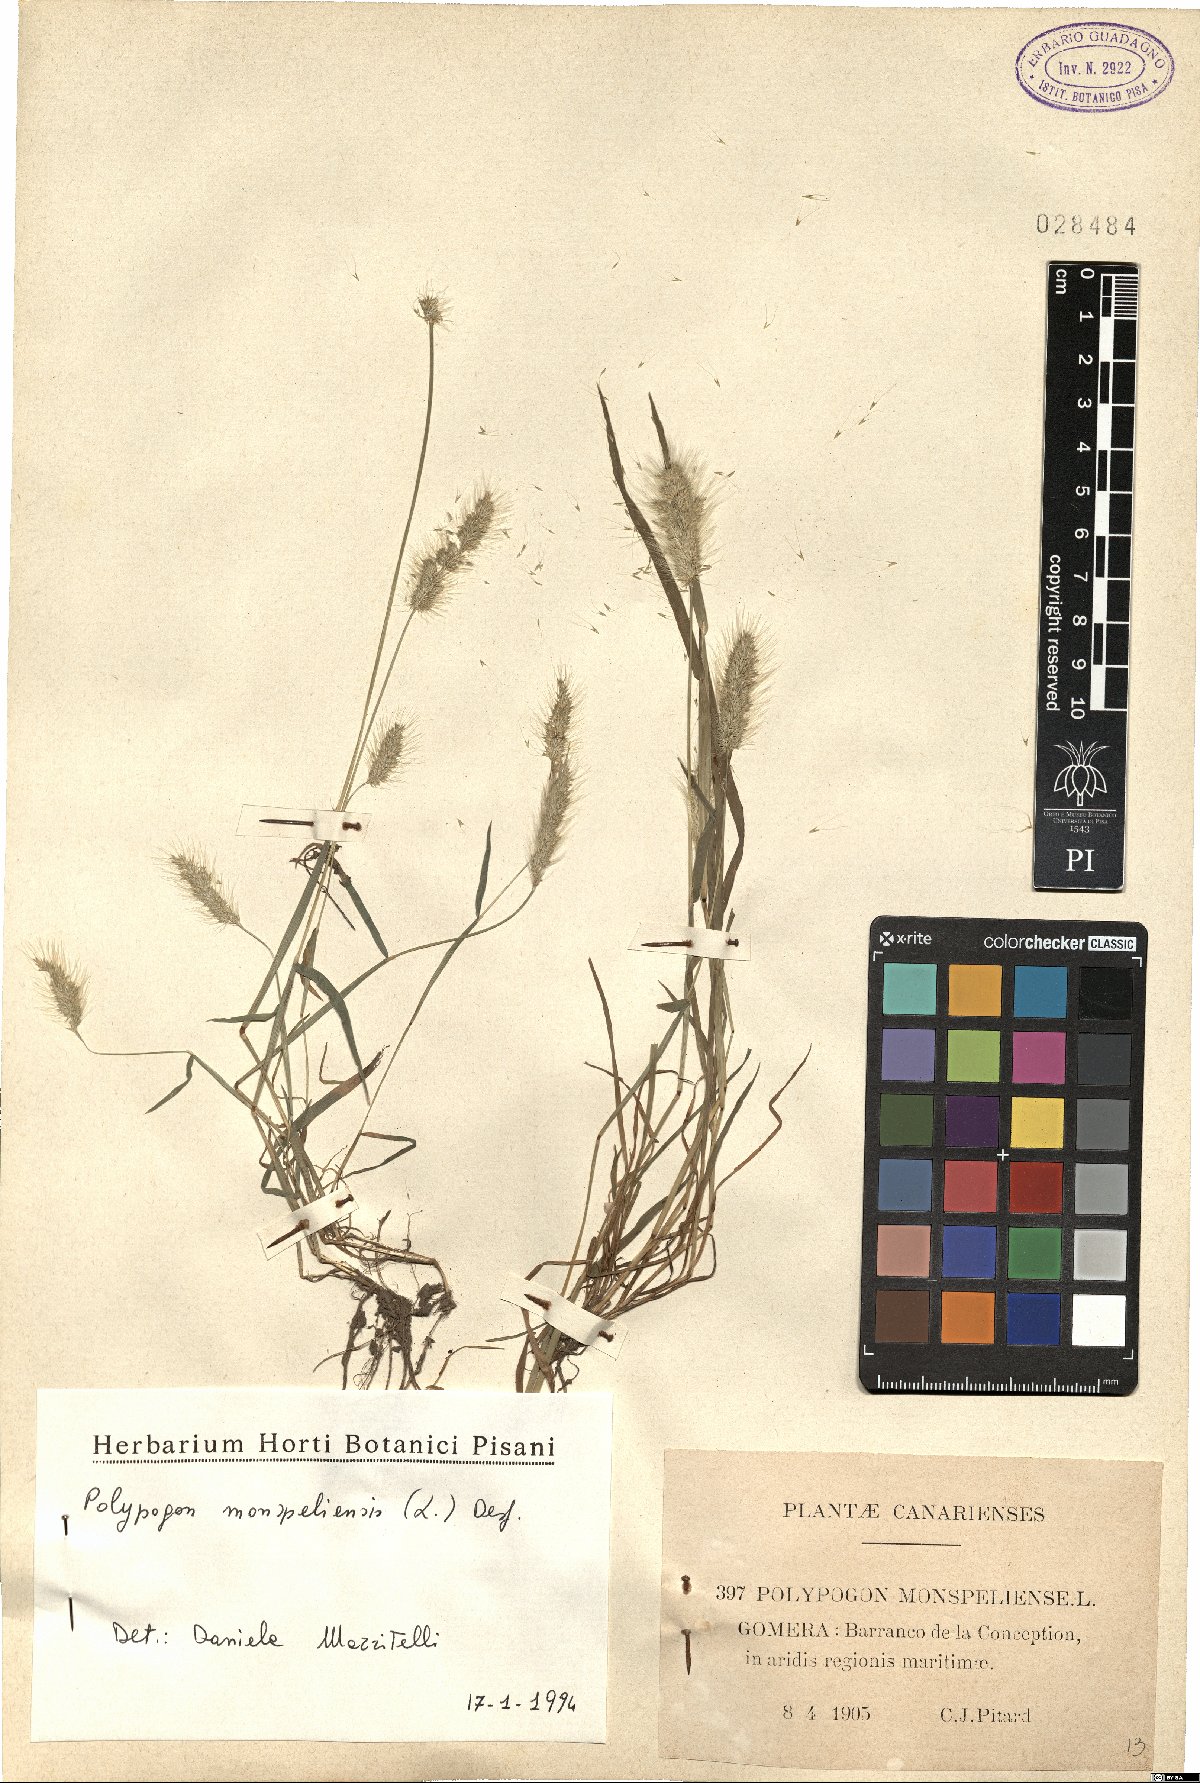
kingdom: Plantae
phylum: Tracheophyta
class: Liliopsida
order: Poales
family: Poaceae
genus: Polypogon
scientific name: Polypogon monspeliensis
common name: Annual rabbitsfoot grass
